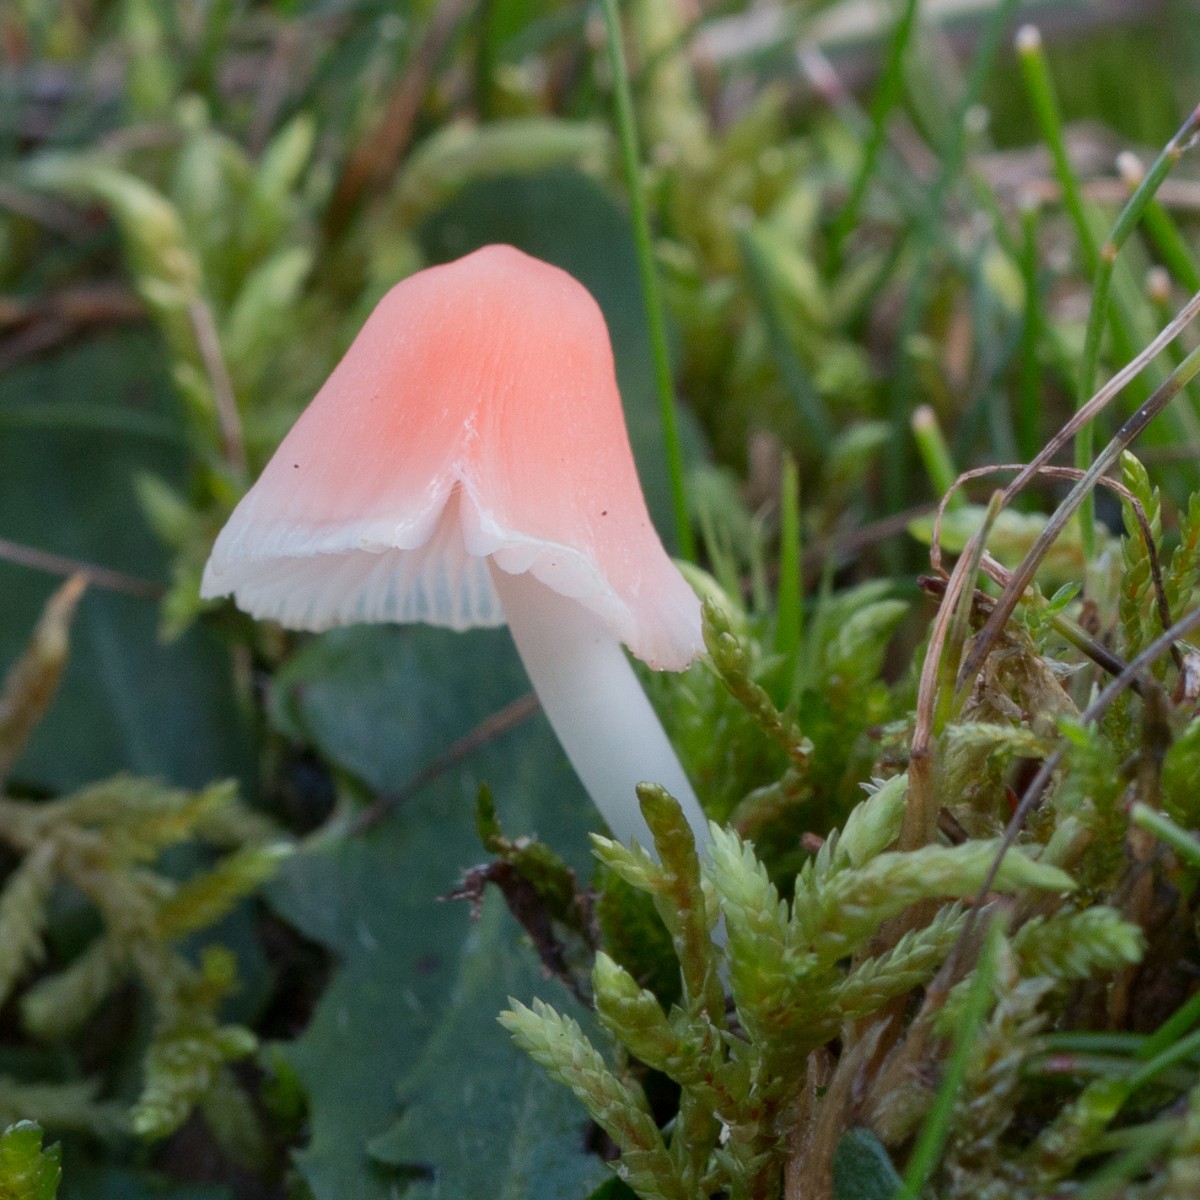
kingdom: Fungi
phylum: Basidiomycota
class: Agaricomycetes
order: Agaricales
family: Mycenaceae
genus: Atheniella
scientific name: Atheniella adonis
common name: rønnerød huesvamp
